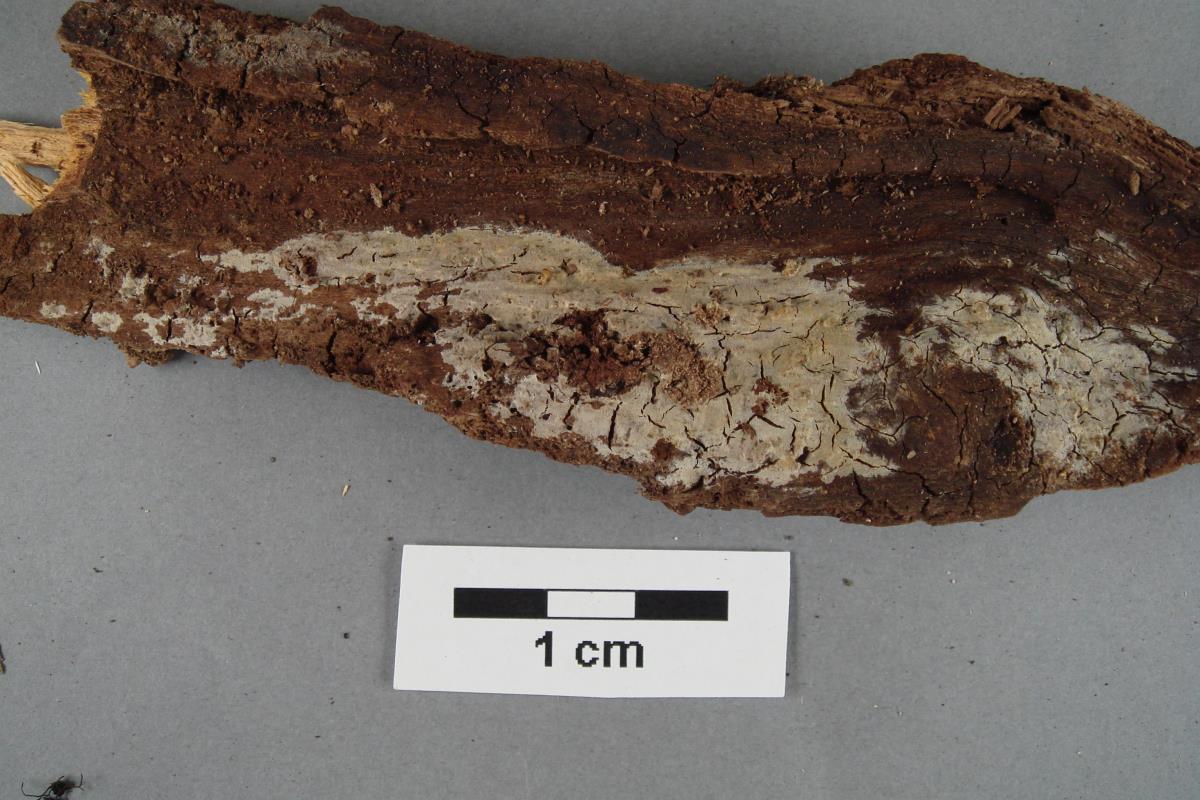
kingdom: Fungi
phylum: Basidiomycota
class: Agaricomycetes
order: Polyporales
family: Phanerochaetaceae
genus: Phlebiopsis
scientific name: Phlebiopsis gigantea
